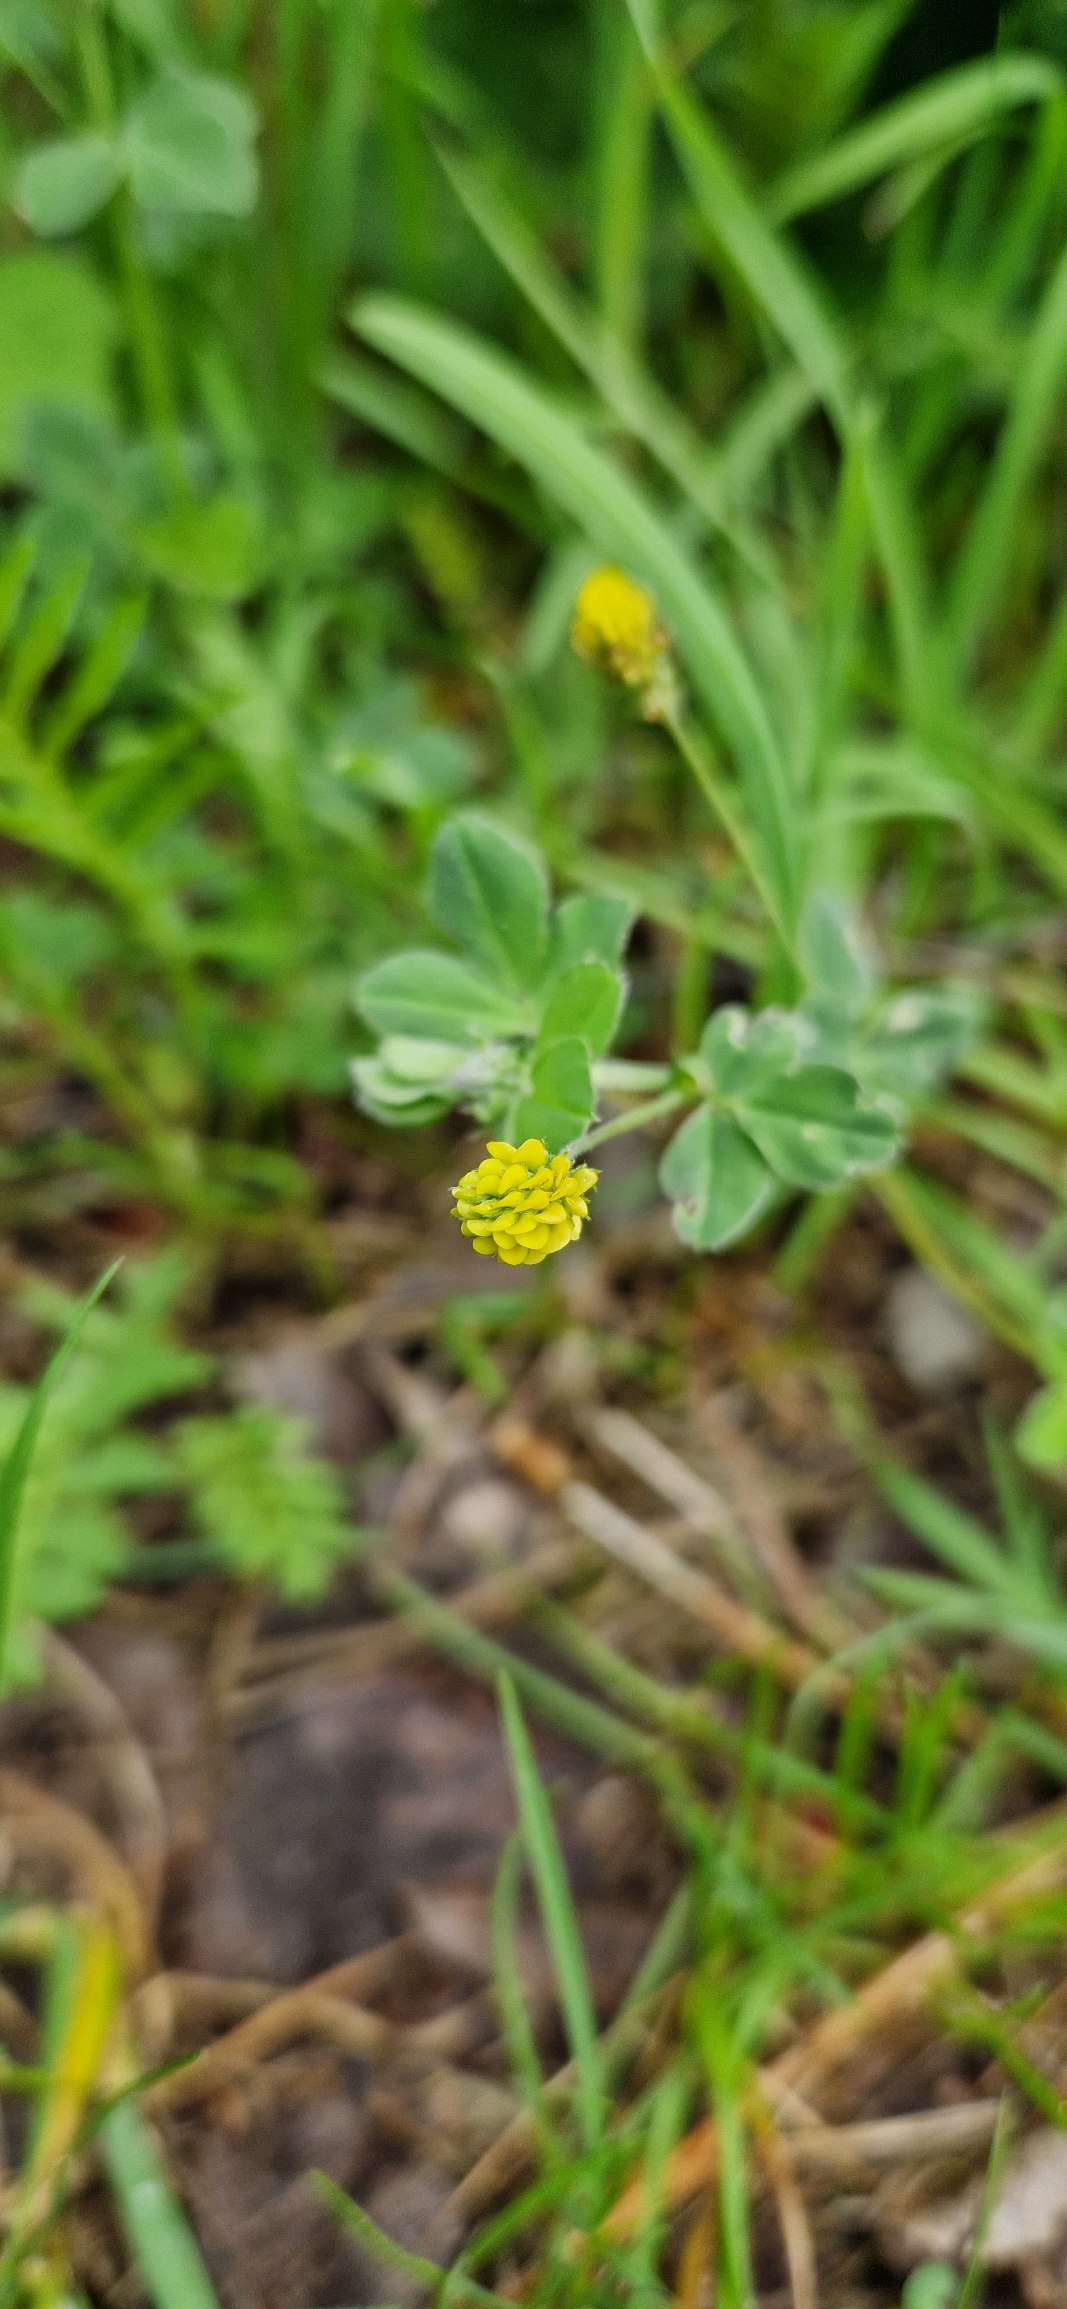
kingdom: Plantae
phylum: Tracheophyta
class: Magnoliopsida
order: Fabales
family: Fabaceae
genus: Medicago
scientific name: Medicago lupulina
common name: Humle-sneglebælg
